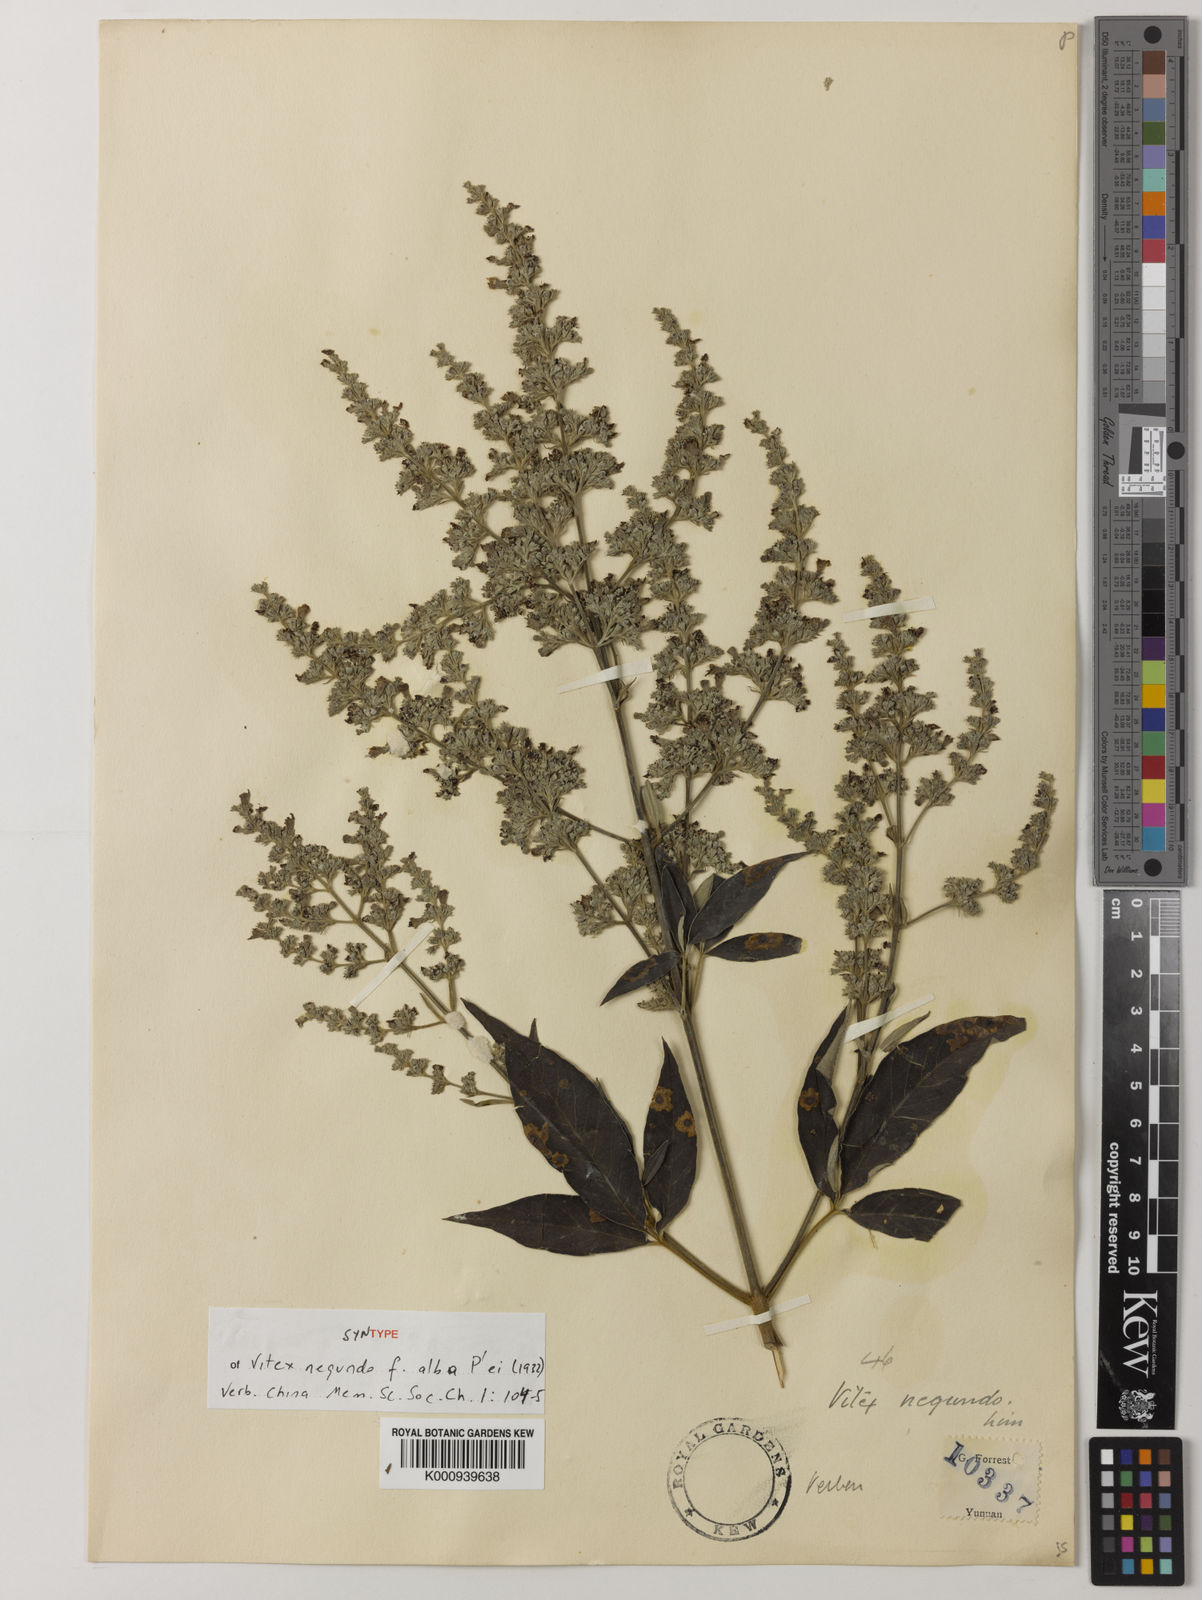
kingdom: Plantae
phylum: Tracheophyta
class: Magnoliopsida
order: Lamiales
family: Lamiaceae
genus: Vitex
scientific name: Vitex negundo
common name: Chinese chastetree
